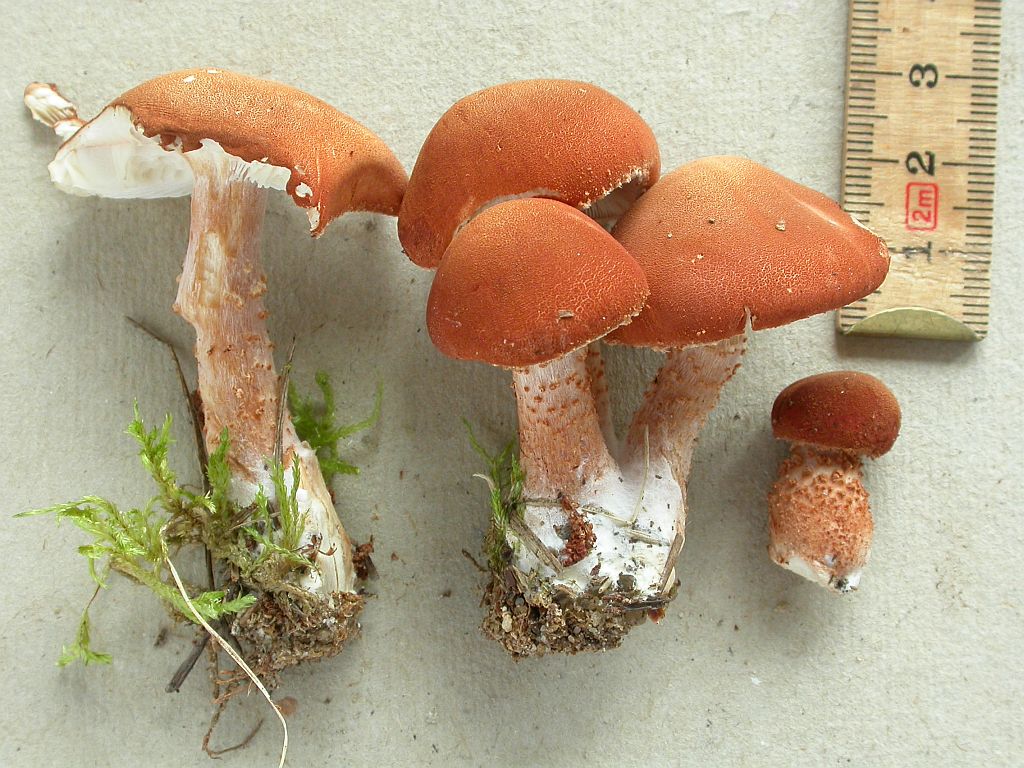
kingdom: Fungi
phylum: Basidiomycota
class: Agaricomycetes
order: Agaricales
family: Agaricaceae
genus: Cystodermella
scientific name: Cystodermella cinnabarina
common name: cinnober-grynhat
